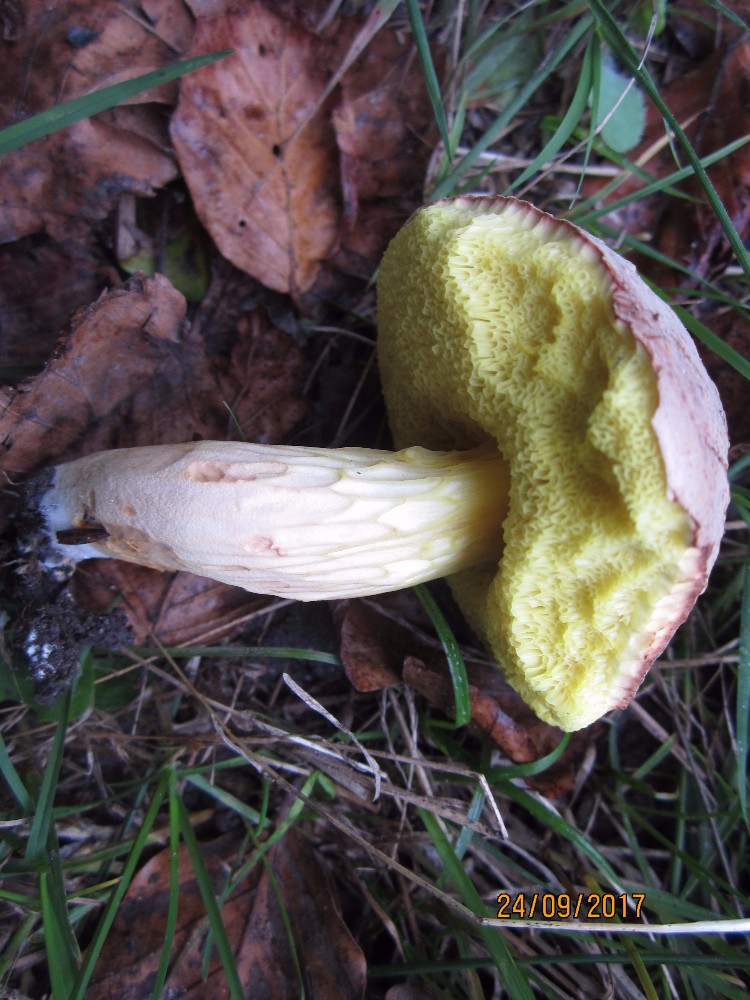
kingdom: Fungi
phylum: Basidiomycota
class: Agaricomycetes
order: Boletales
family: Boletaceae
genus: Xerocomus
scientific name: Xerocomus subtomentosus
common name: filtet rørhat
